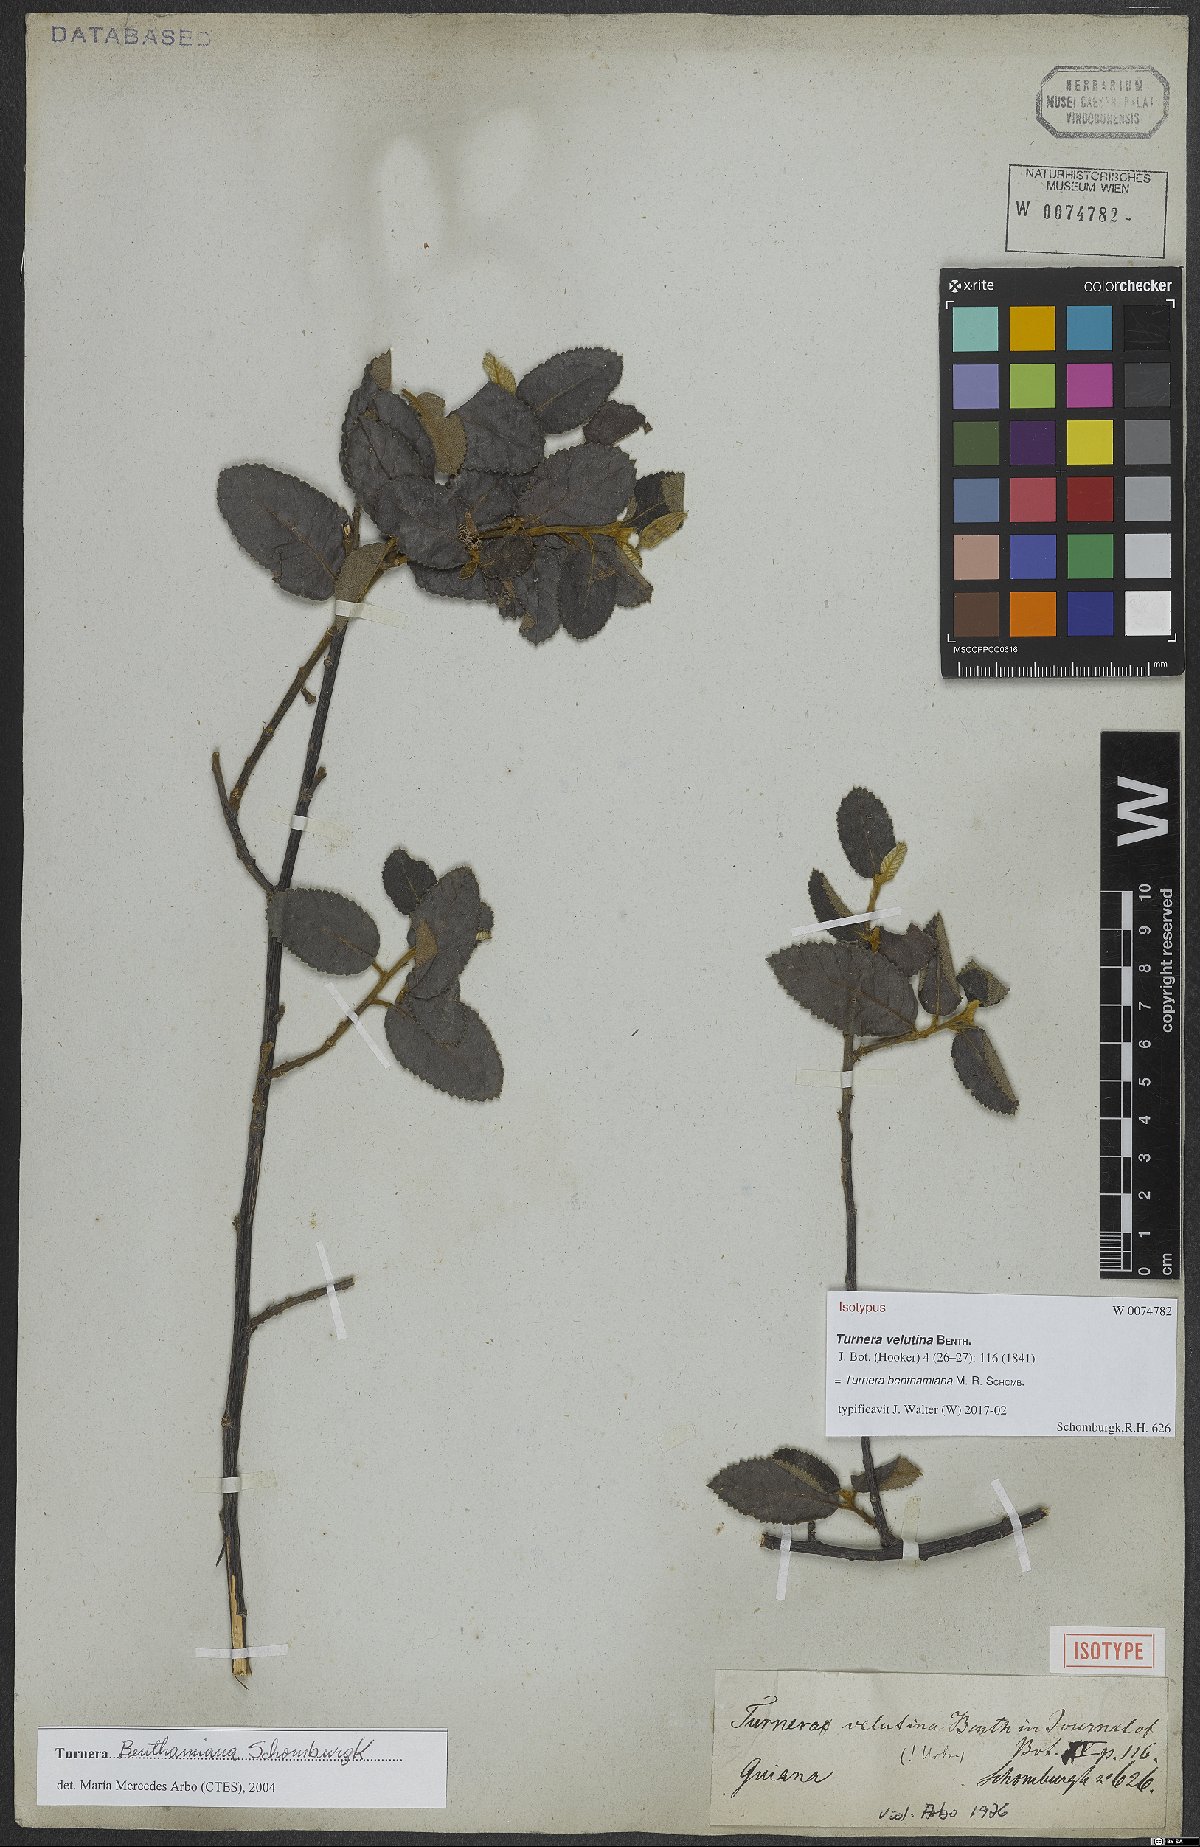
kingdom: Plantae
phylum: Tracheophyta
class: Magnoliopsida
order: Malpighiales
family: Turneraceae
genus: Turnera
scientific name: Turnera benthamiana
